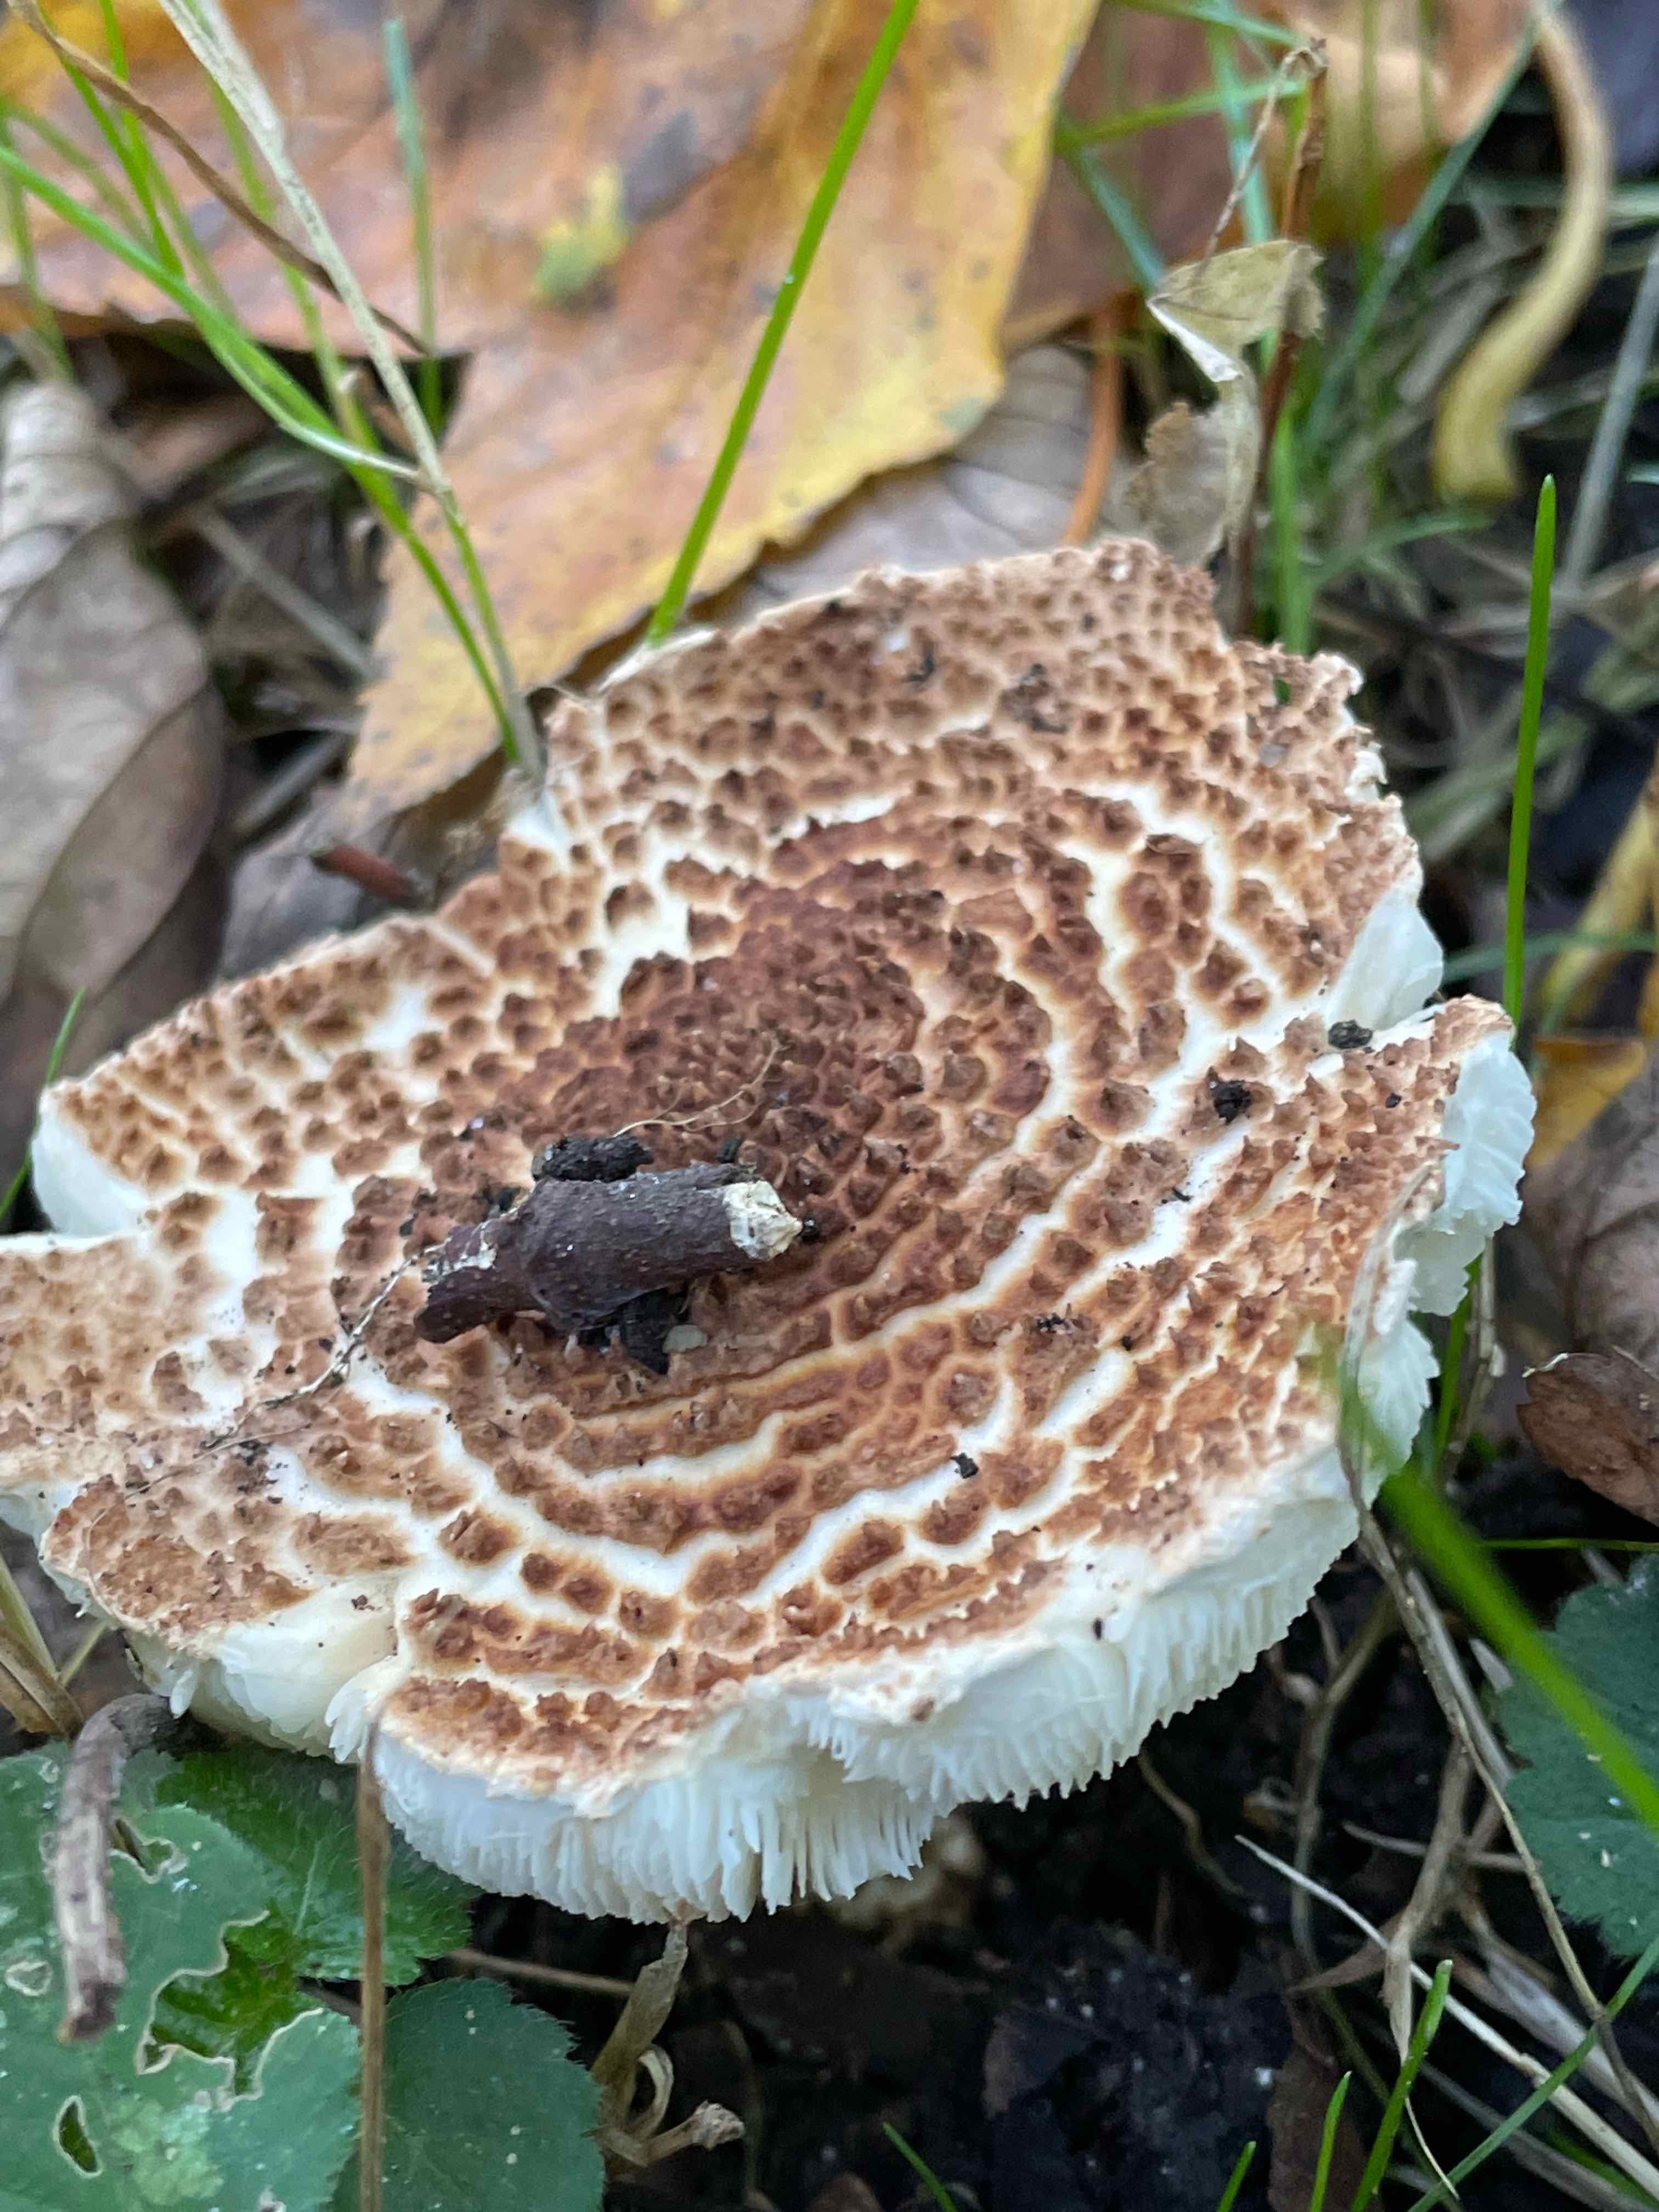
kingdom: Fungi
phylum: Basidiomycota
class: Agaricomycetes
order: Agaricales
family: Agaricaceae
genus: Echinoderma
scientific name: Echinoderma asperum
